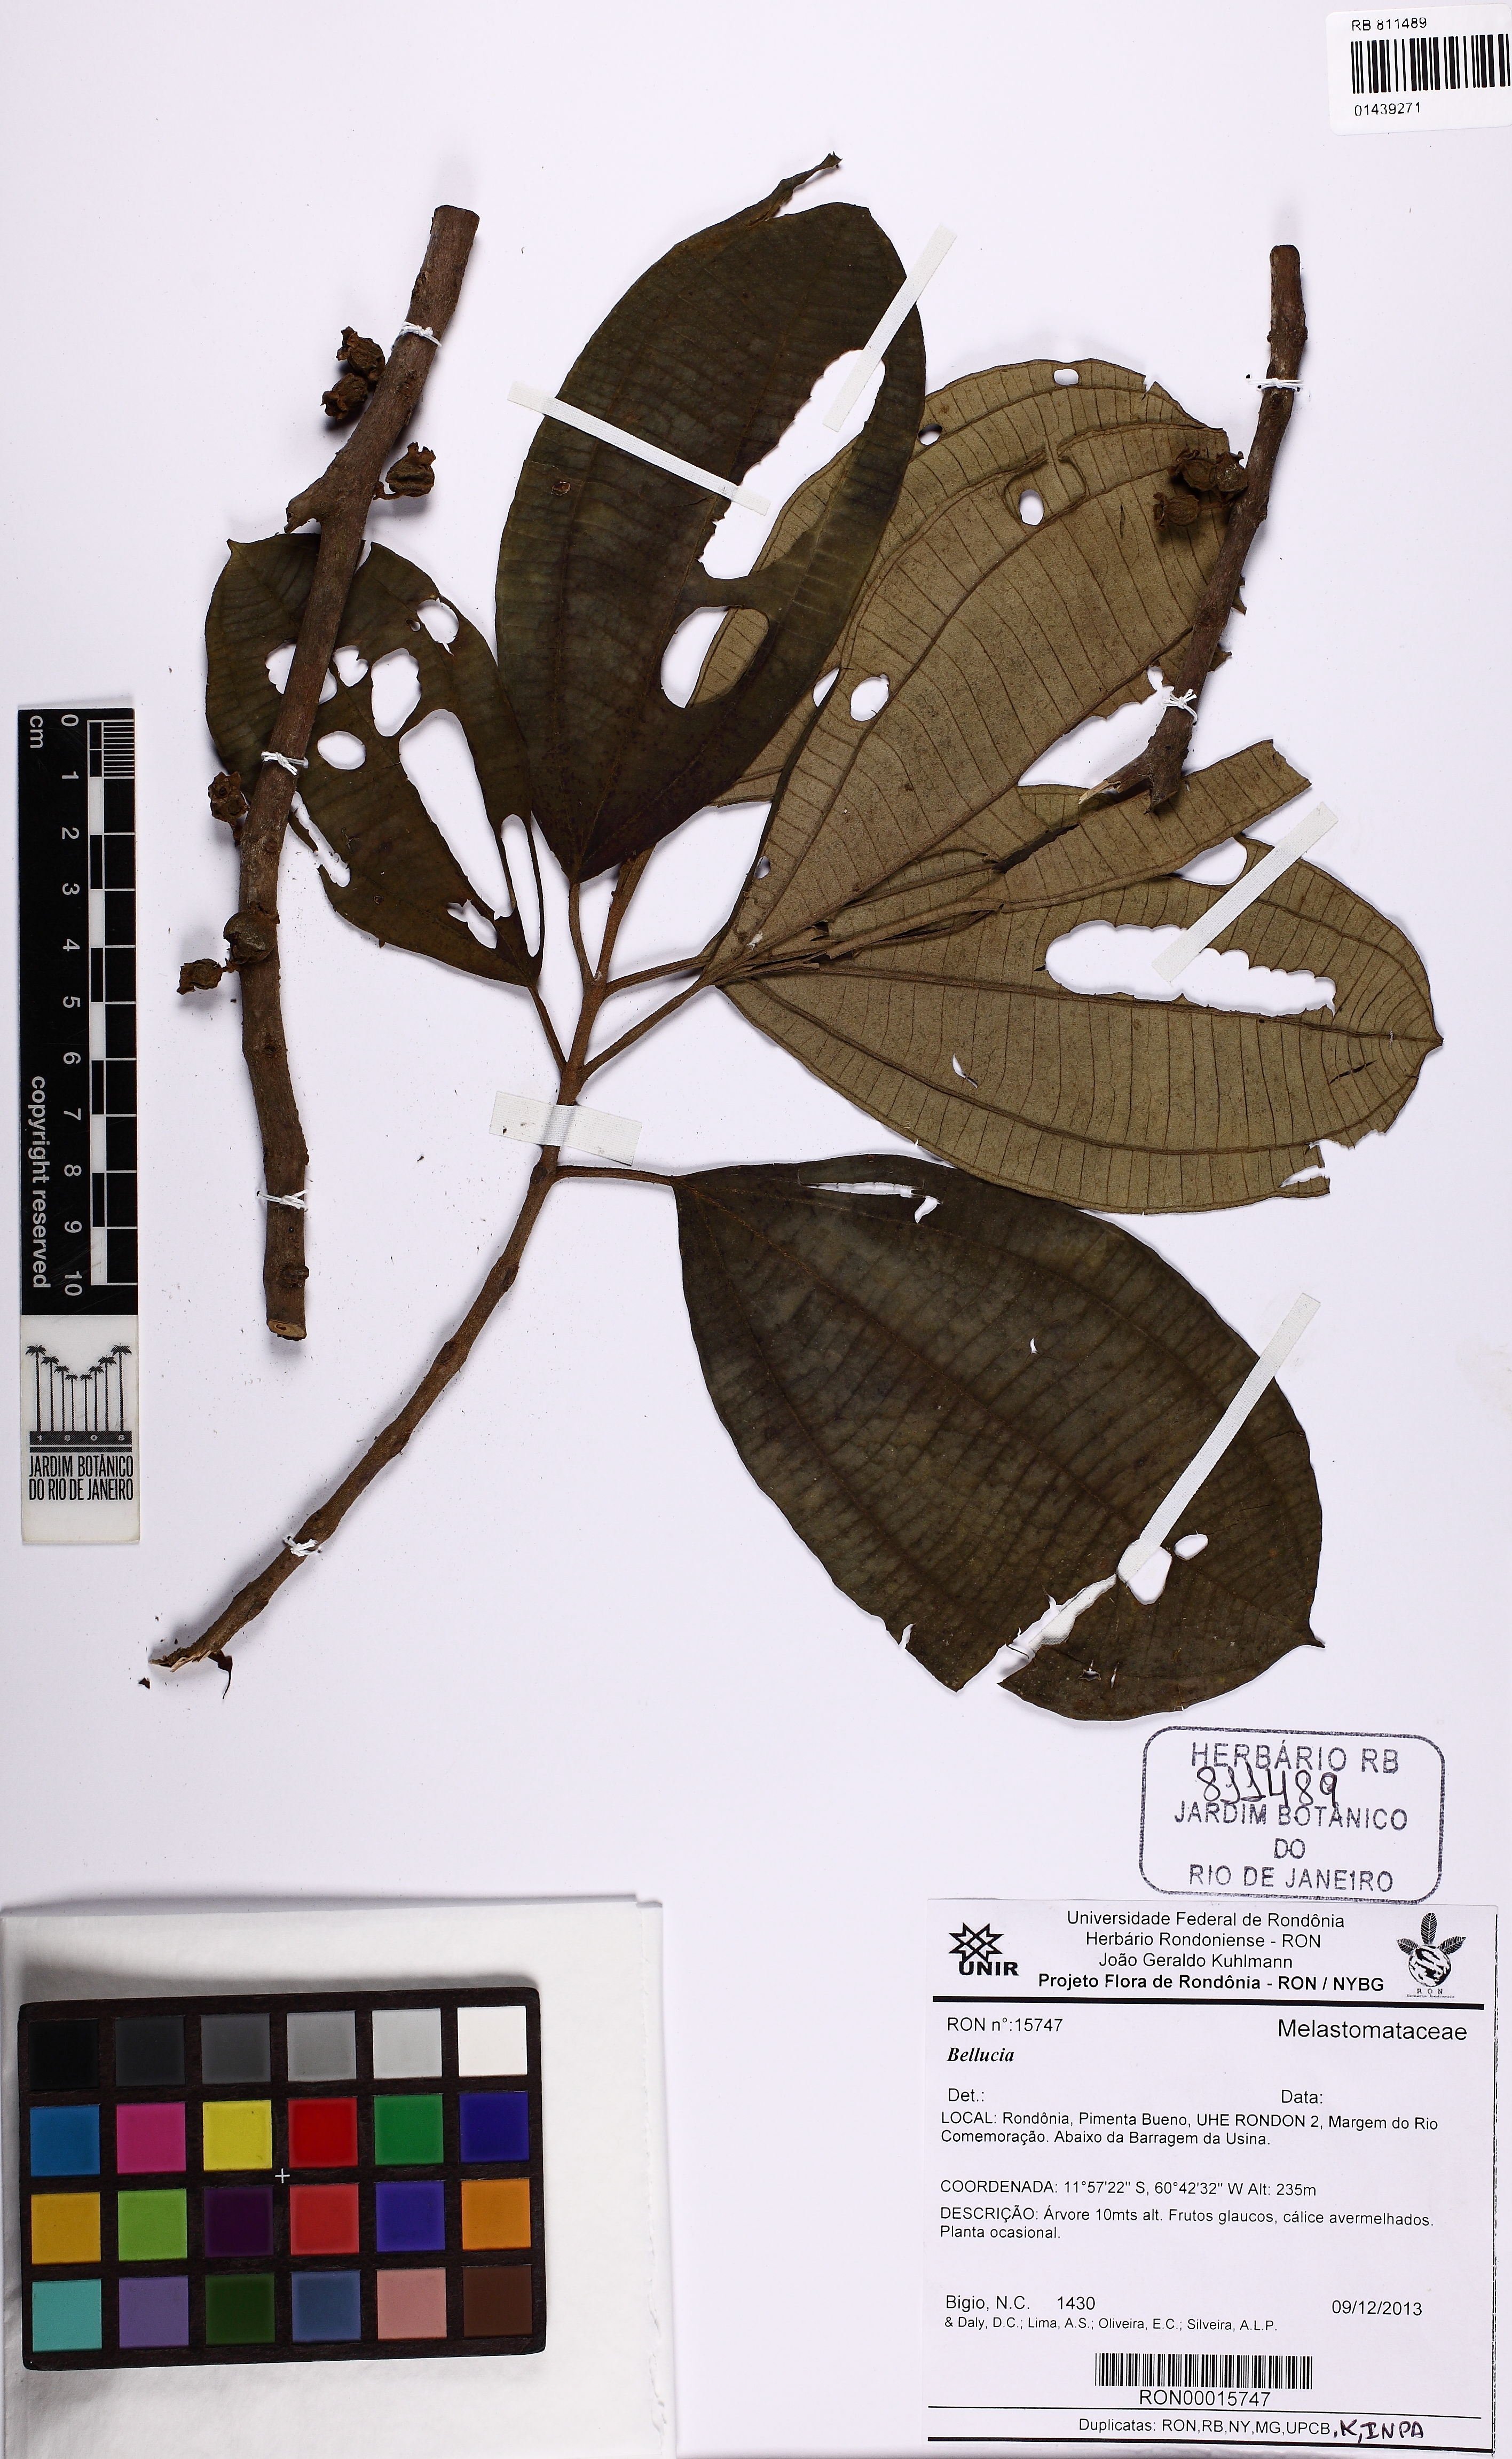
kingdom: Plantae
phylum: Tracheophyta
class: Magnoliopsida
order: Myrtales
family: Melastomataceae
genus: Bellucia
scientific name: Bellucia
